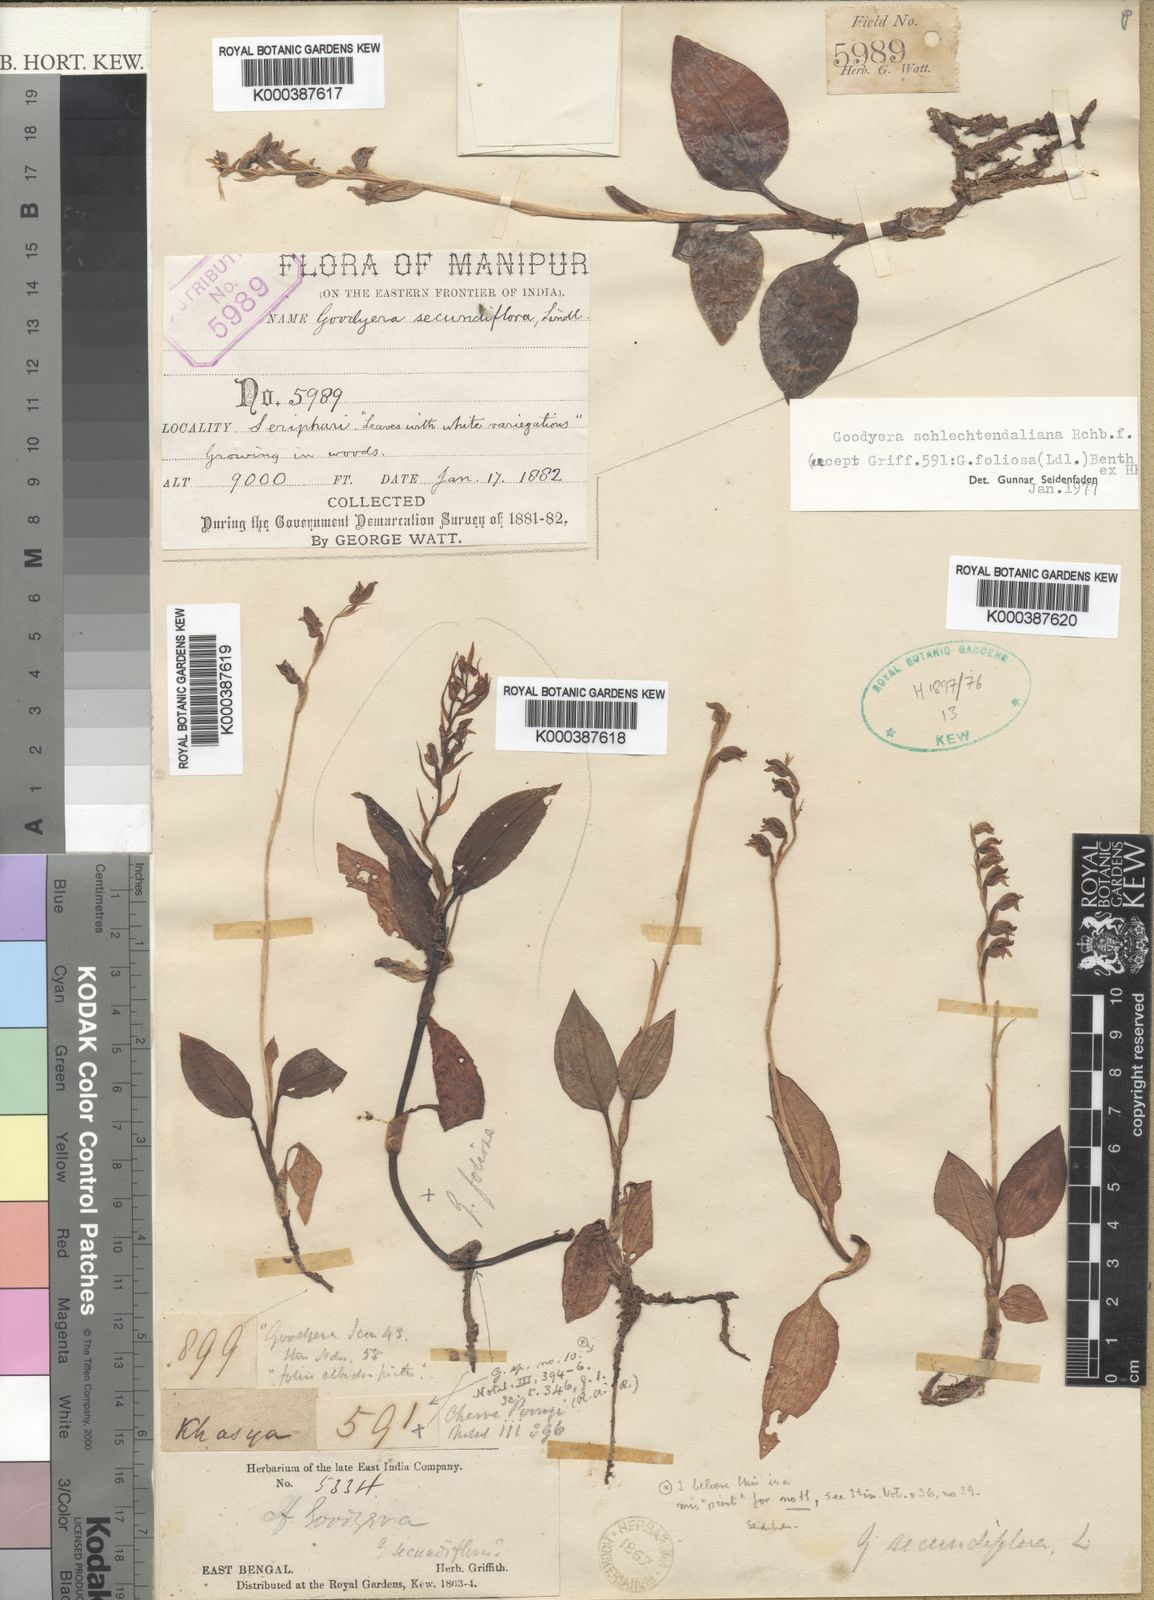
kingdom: Plantae
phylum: Tracheophyta
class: Liliopsida
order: Asparagales
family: Orchidaceae
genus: Goodyera
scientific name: Goodyera secundiflora
